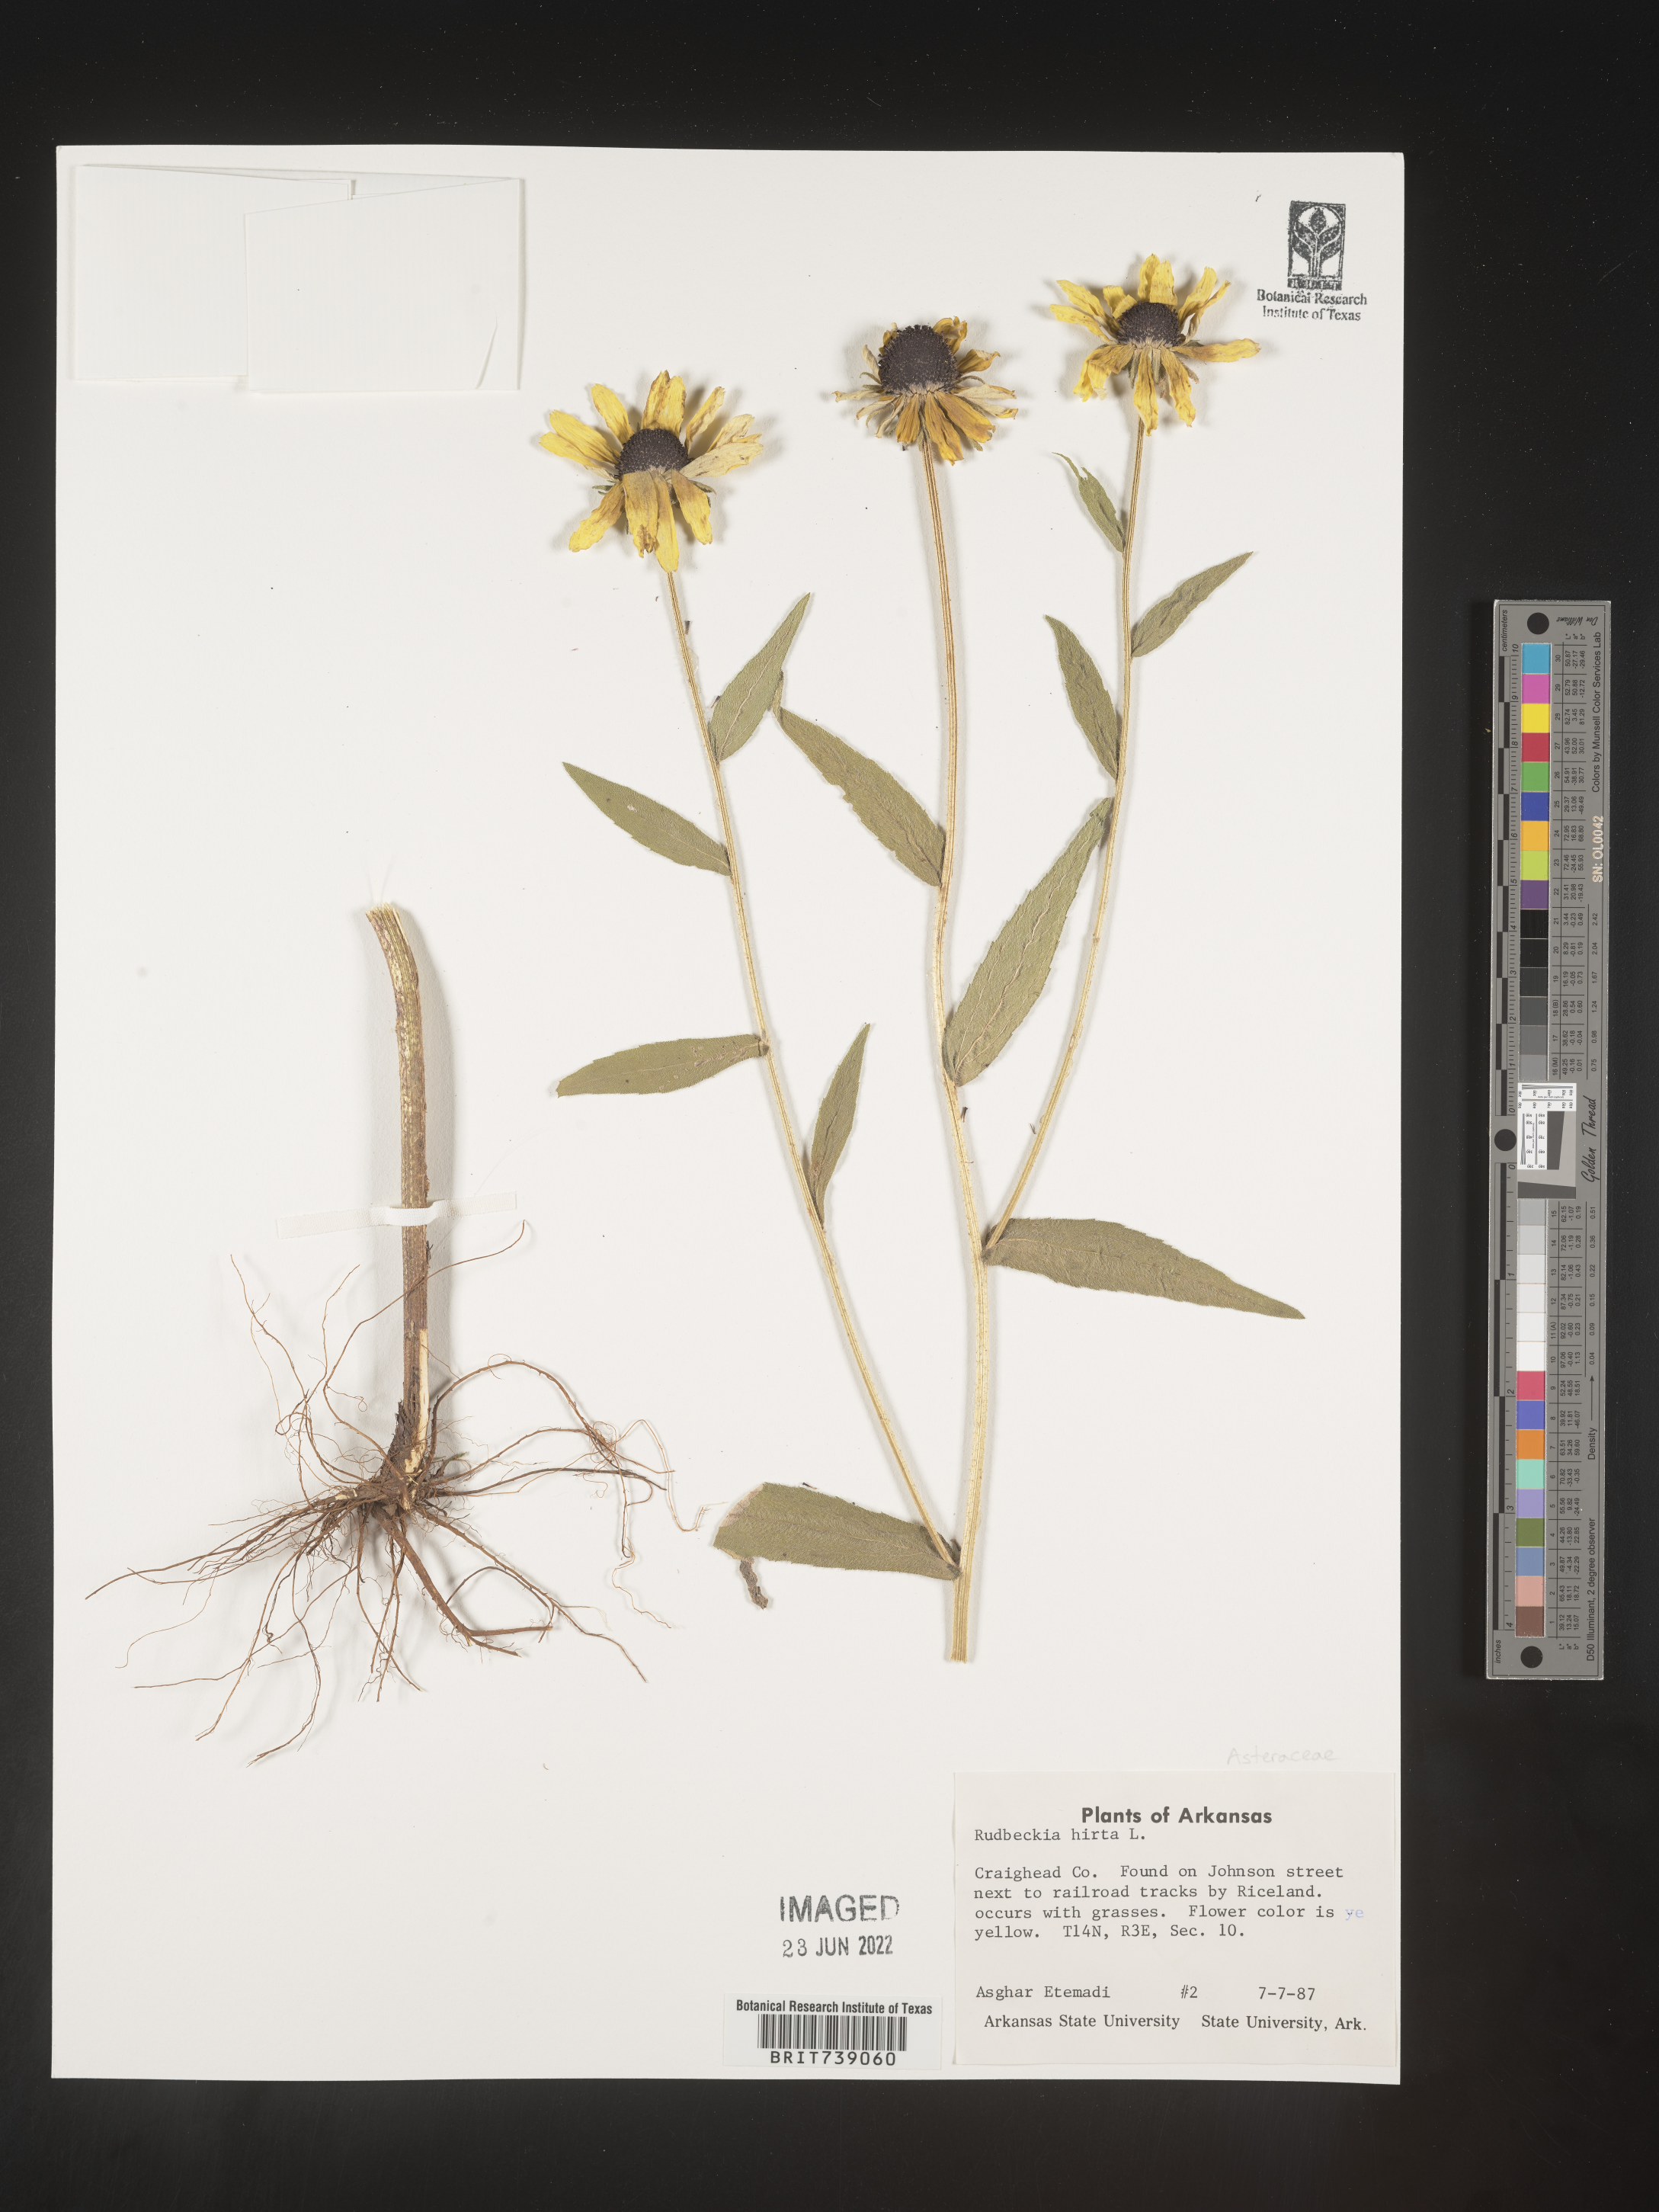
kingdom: Plantae
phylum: Tracheophyta
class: Magnoliopsida
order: Asterales
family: Asteraceae
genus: Rudbeckia
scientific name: Rudbeckia hirta
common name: Black-eyed-susan
